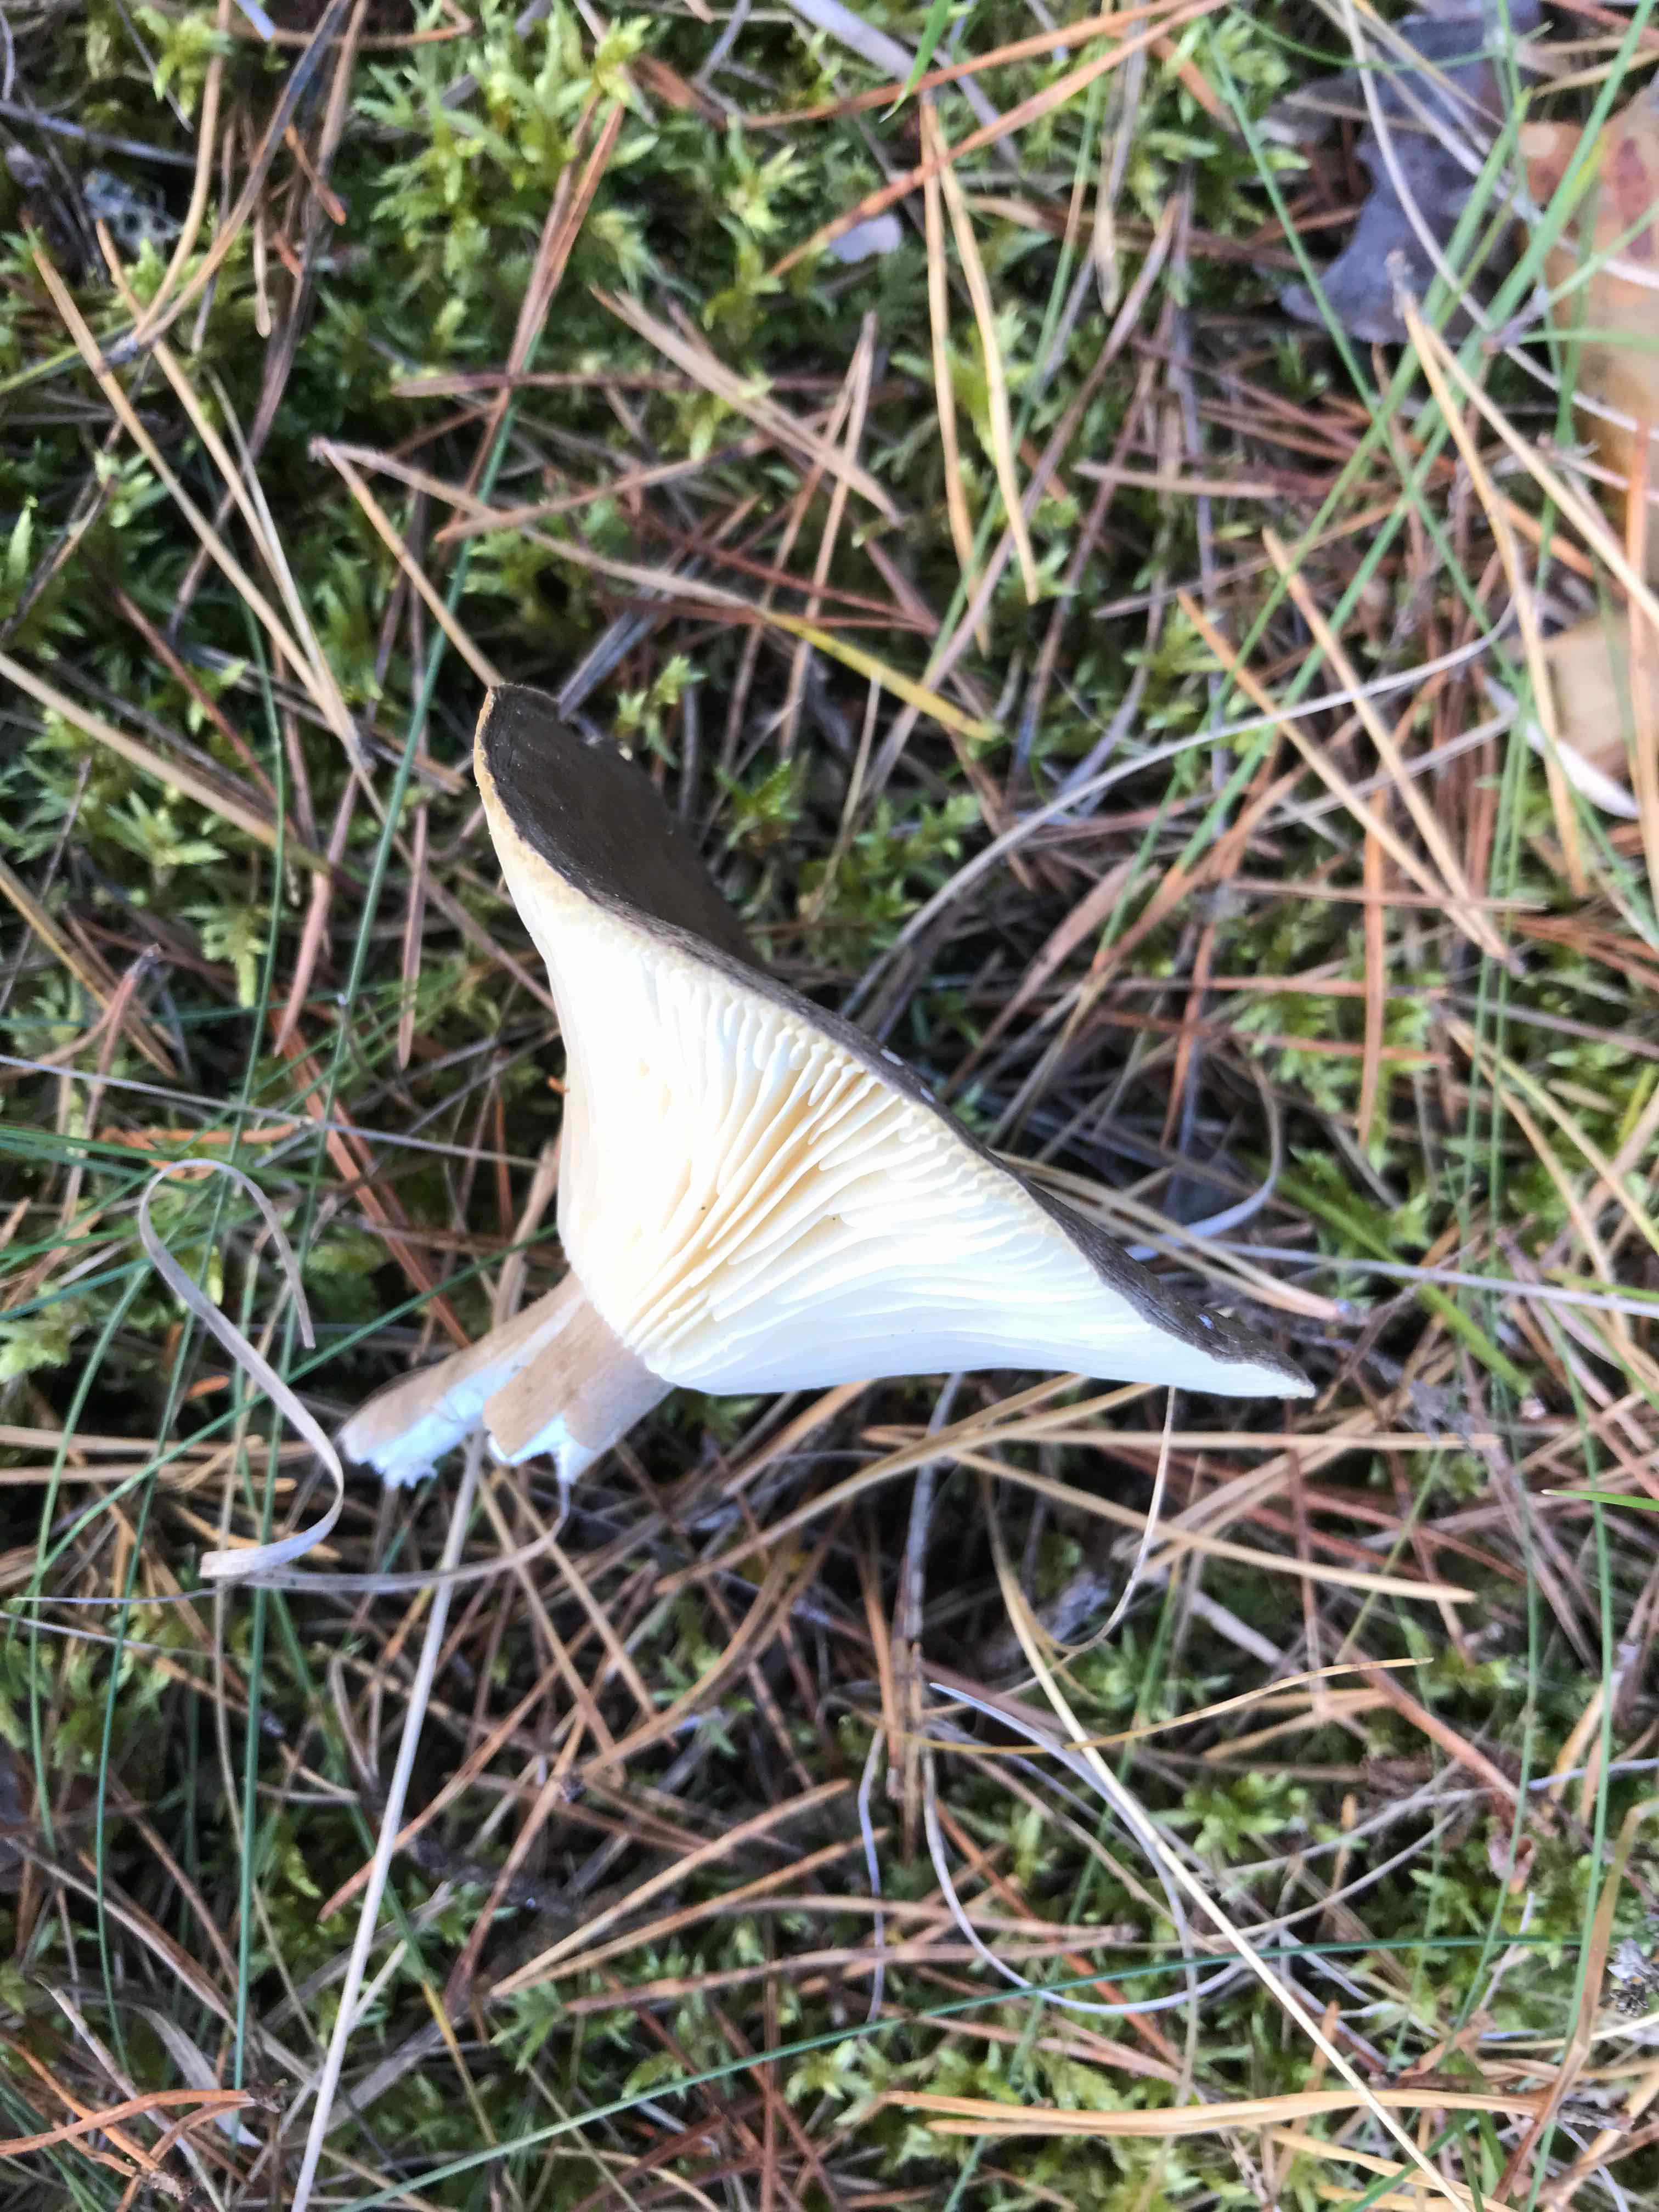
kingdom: Fungi
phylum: Basidiomycota
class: Agaricomycetes
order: Agaricales
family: Hygrophoraceae
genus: Ampulloclitocybe
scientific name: Ampulloclitocybe clavipes
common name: køllefod
